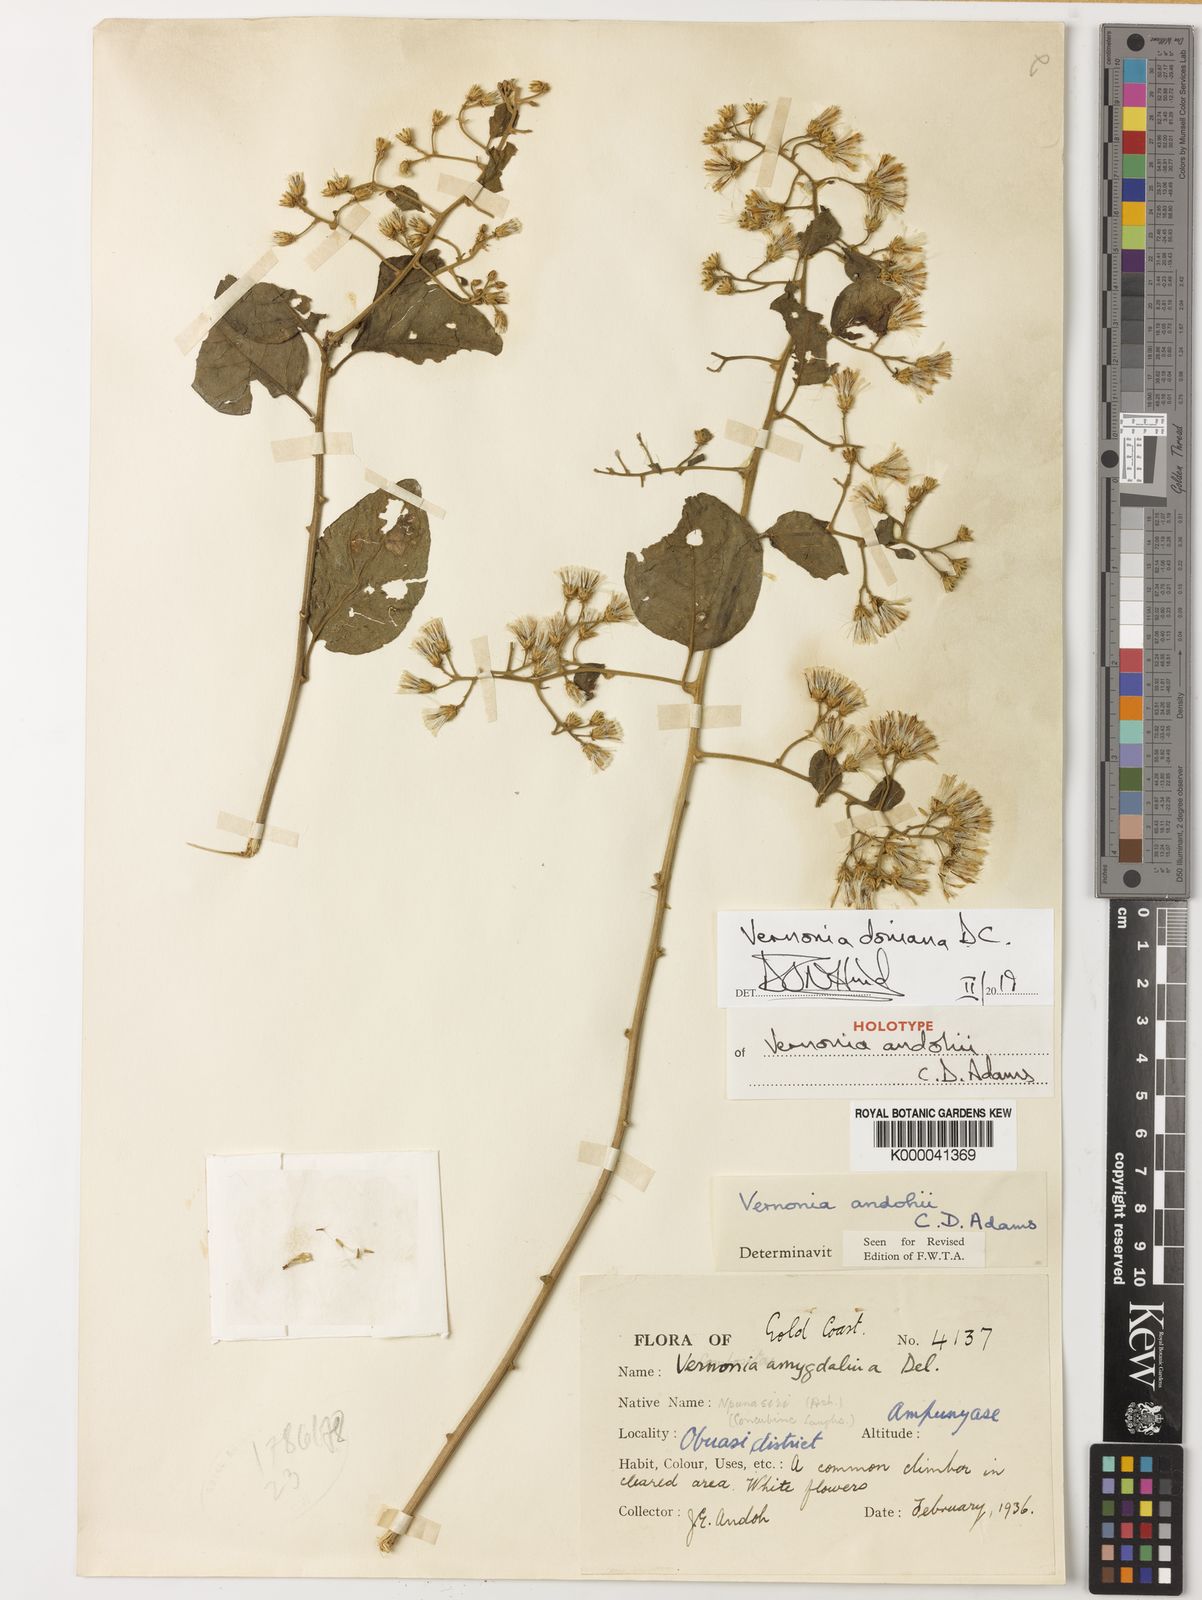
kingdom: Plantae
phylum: Tracheophyta
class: Magnoliopsida
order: Asterales
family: Asteraceae
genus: Brenandendron
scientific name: Brenandendron donianum
